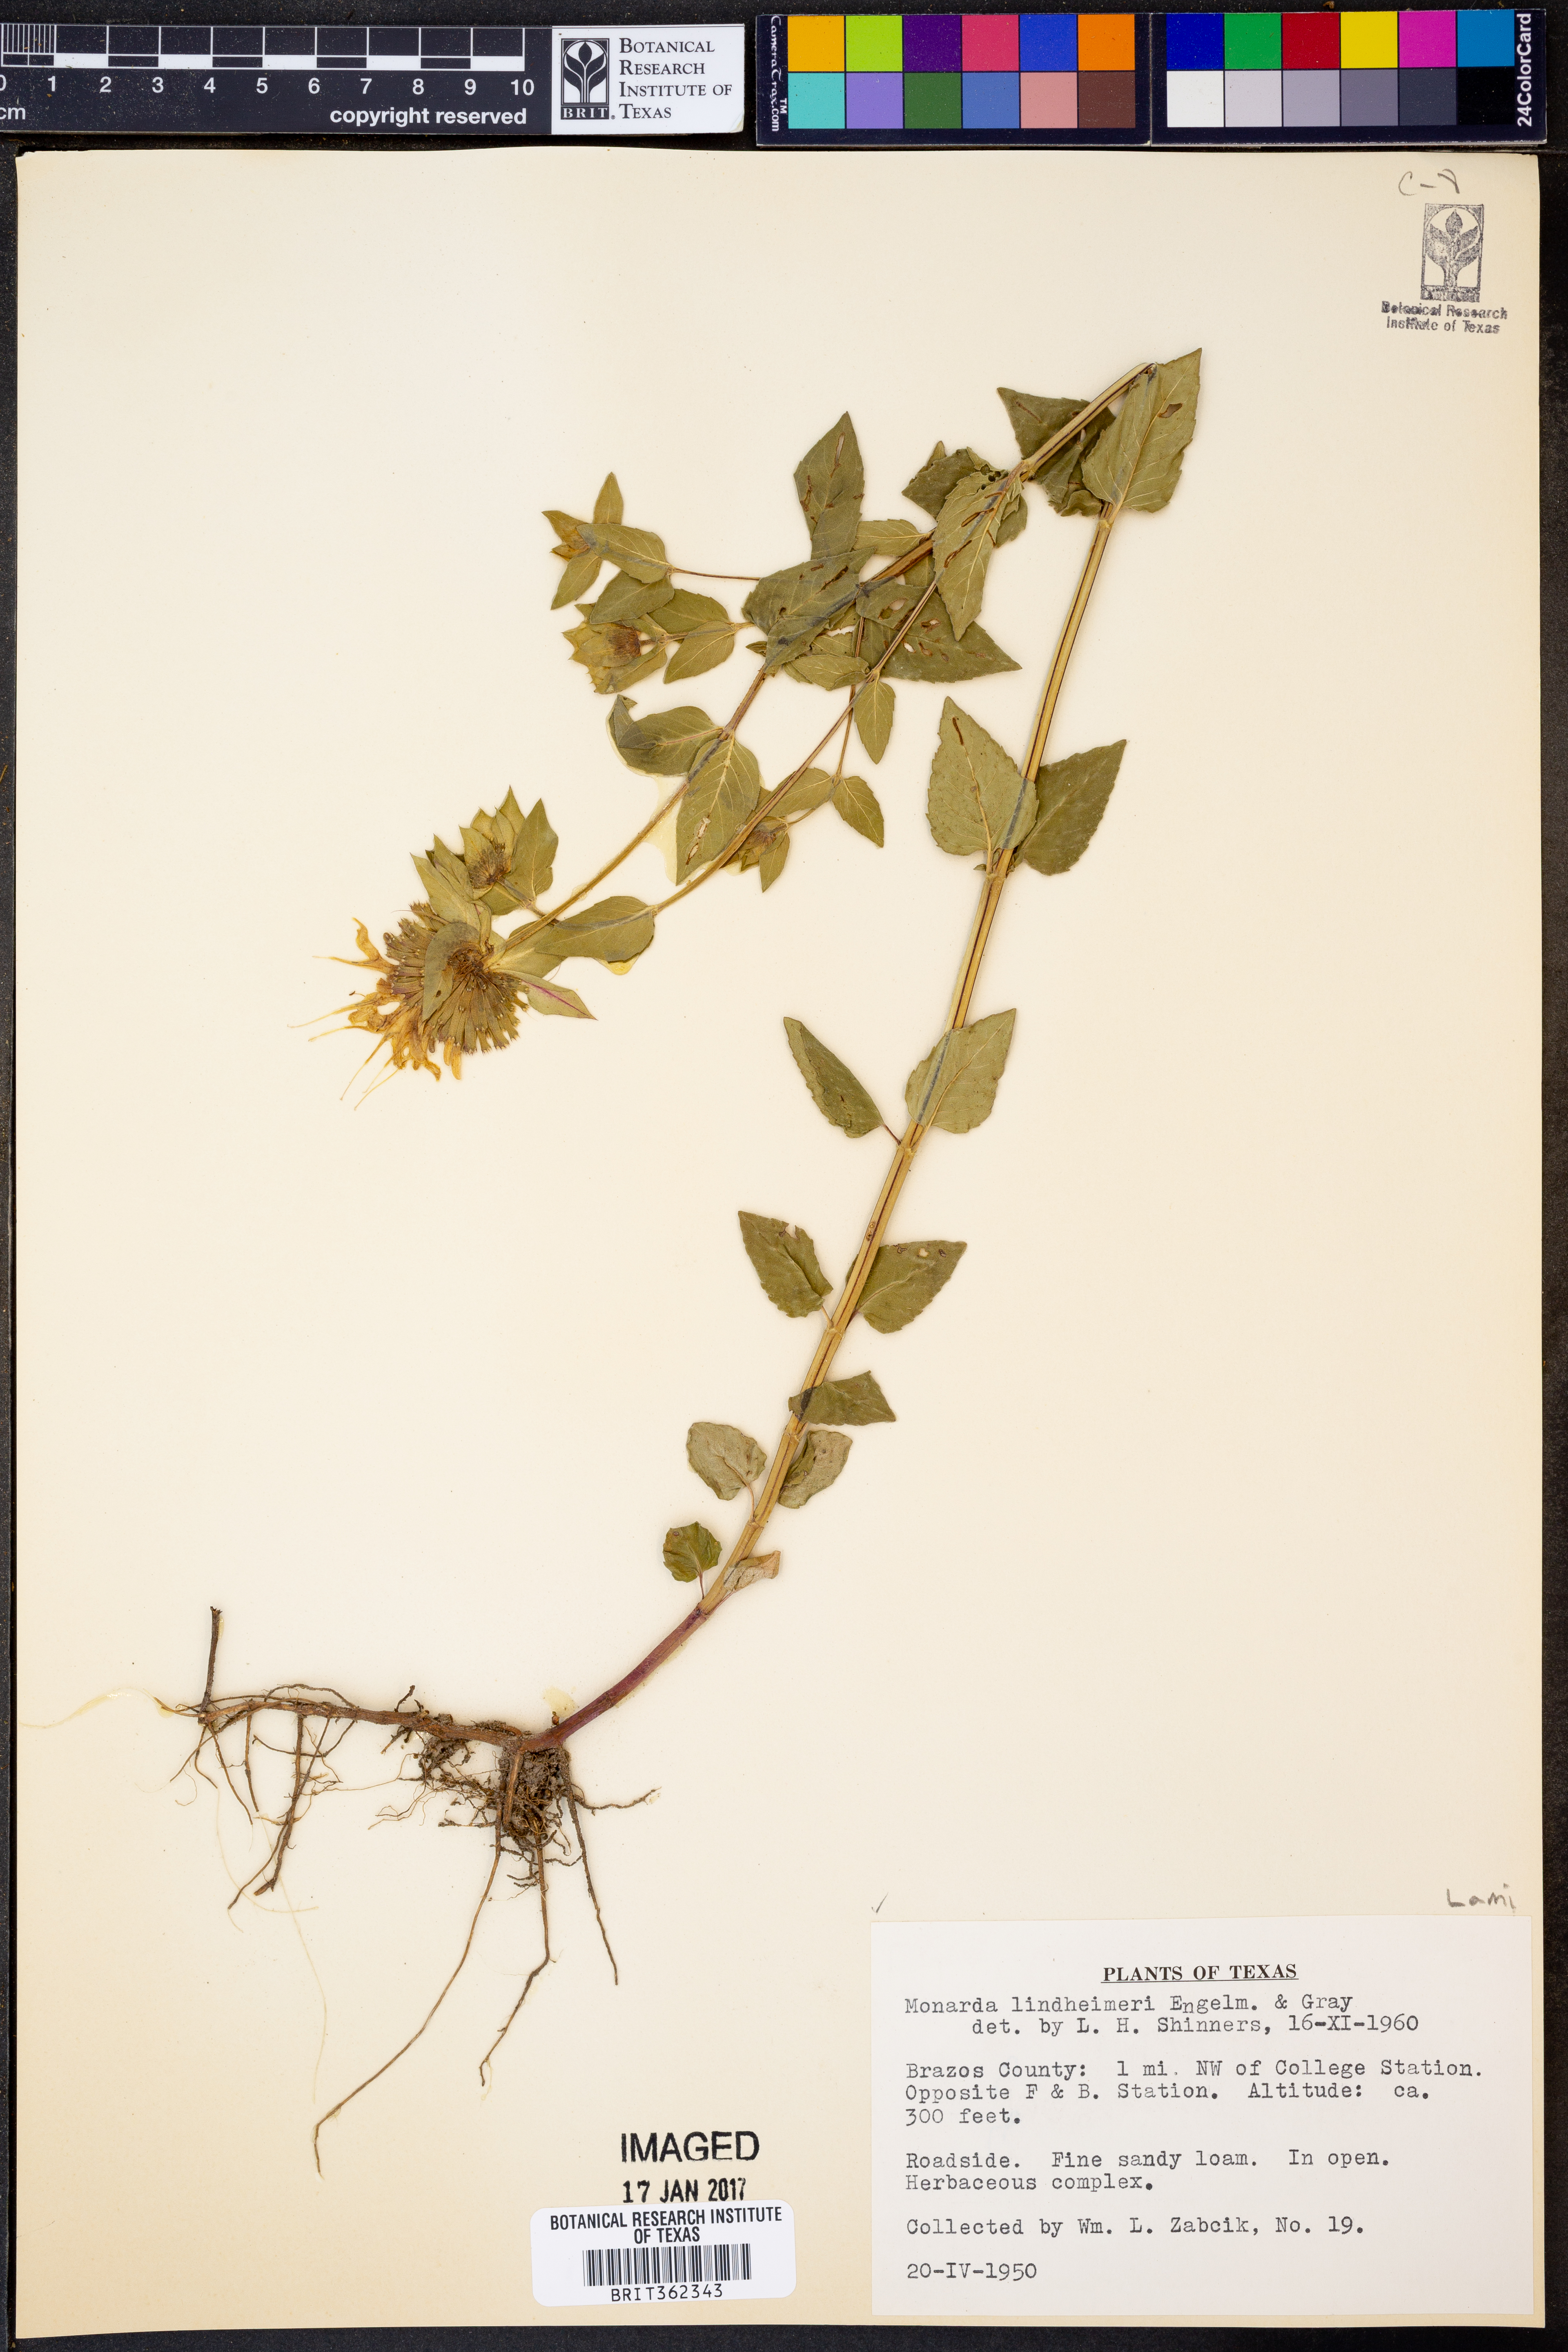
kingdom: Plantae
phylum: Tracheophyta
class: Magnoliopsida
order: Lamiales
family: Lamiaceae
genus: Monarda
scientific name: Monarda lindheimeri
